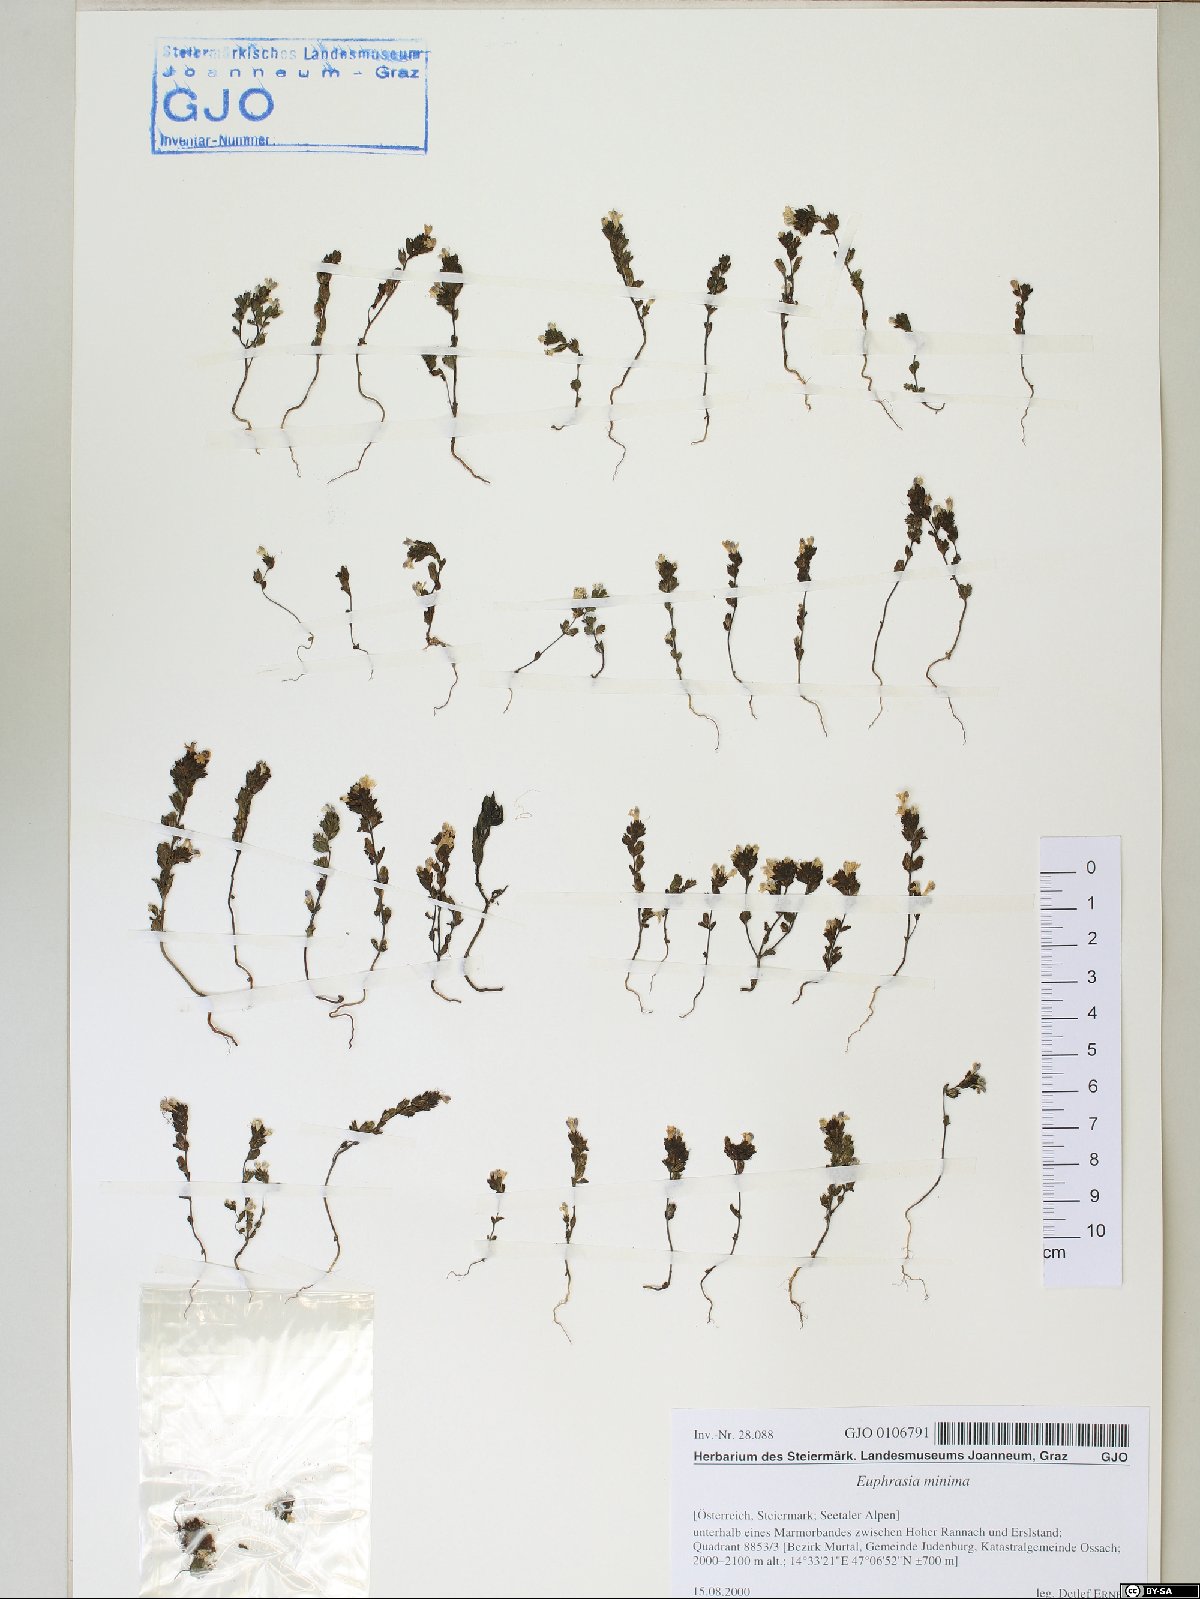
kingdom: Plantae
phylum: Tracheophyta
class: Magnoliopsida
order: Lamiales
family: Orobanchaceae
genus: Euphrasia
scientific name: Euphrasia minima
